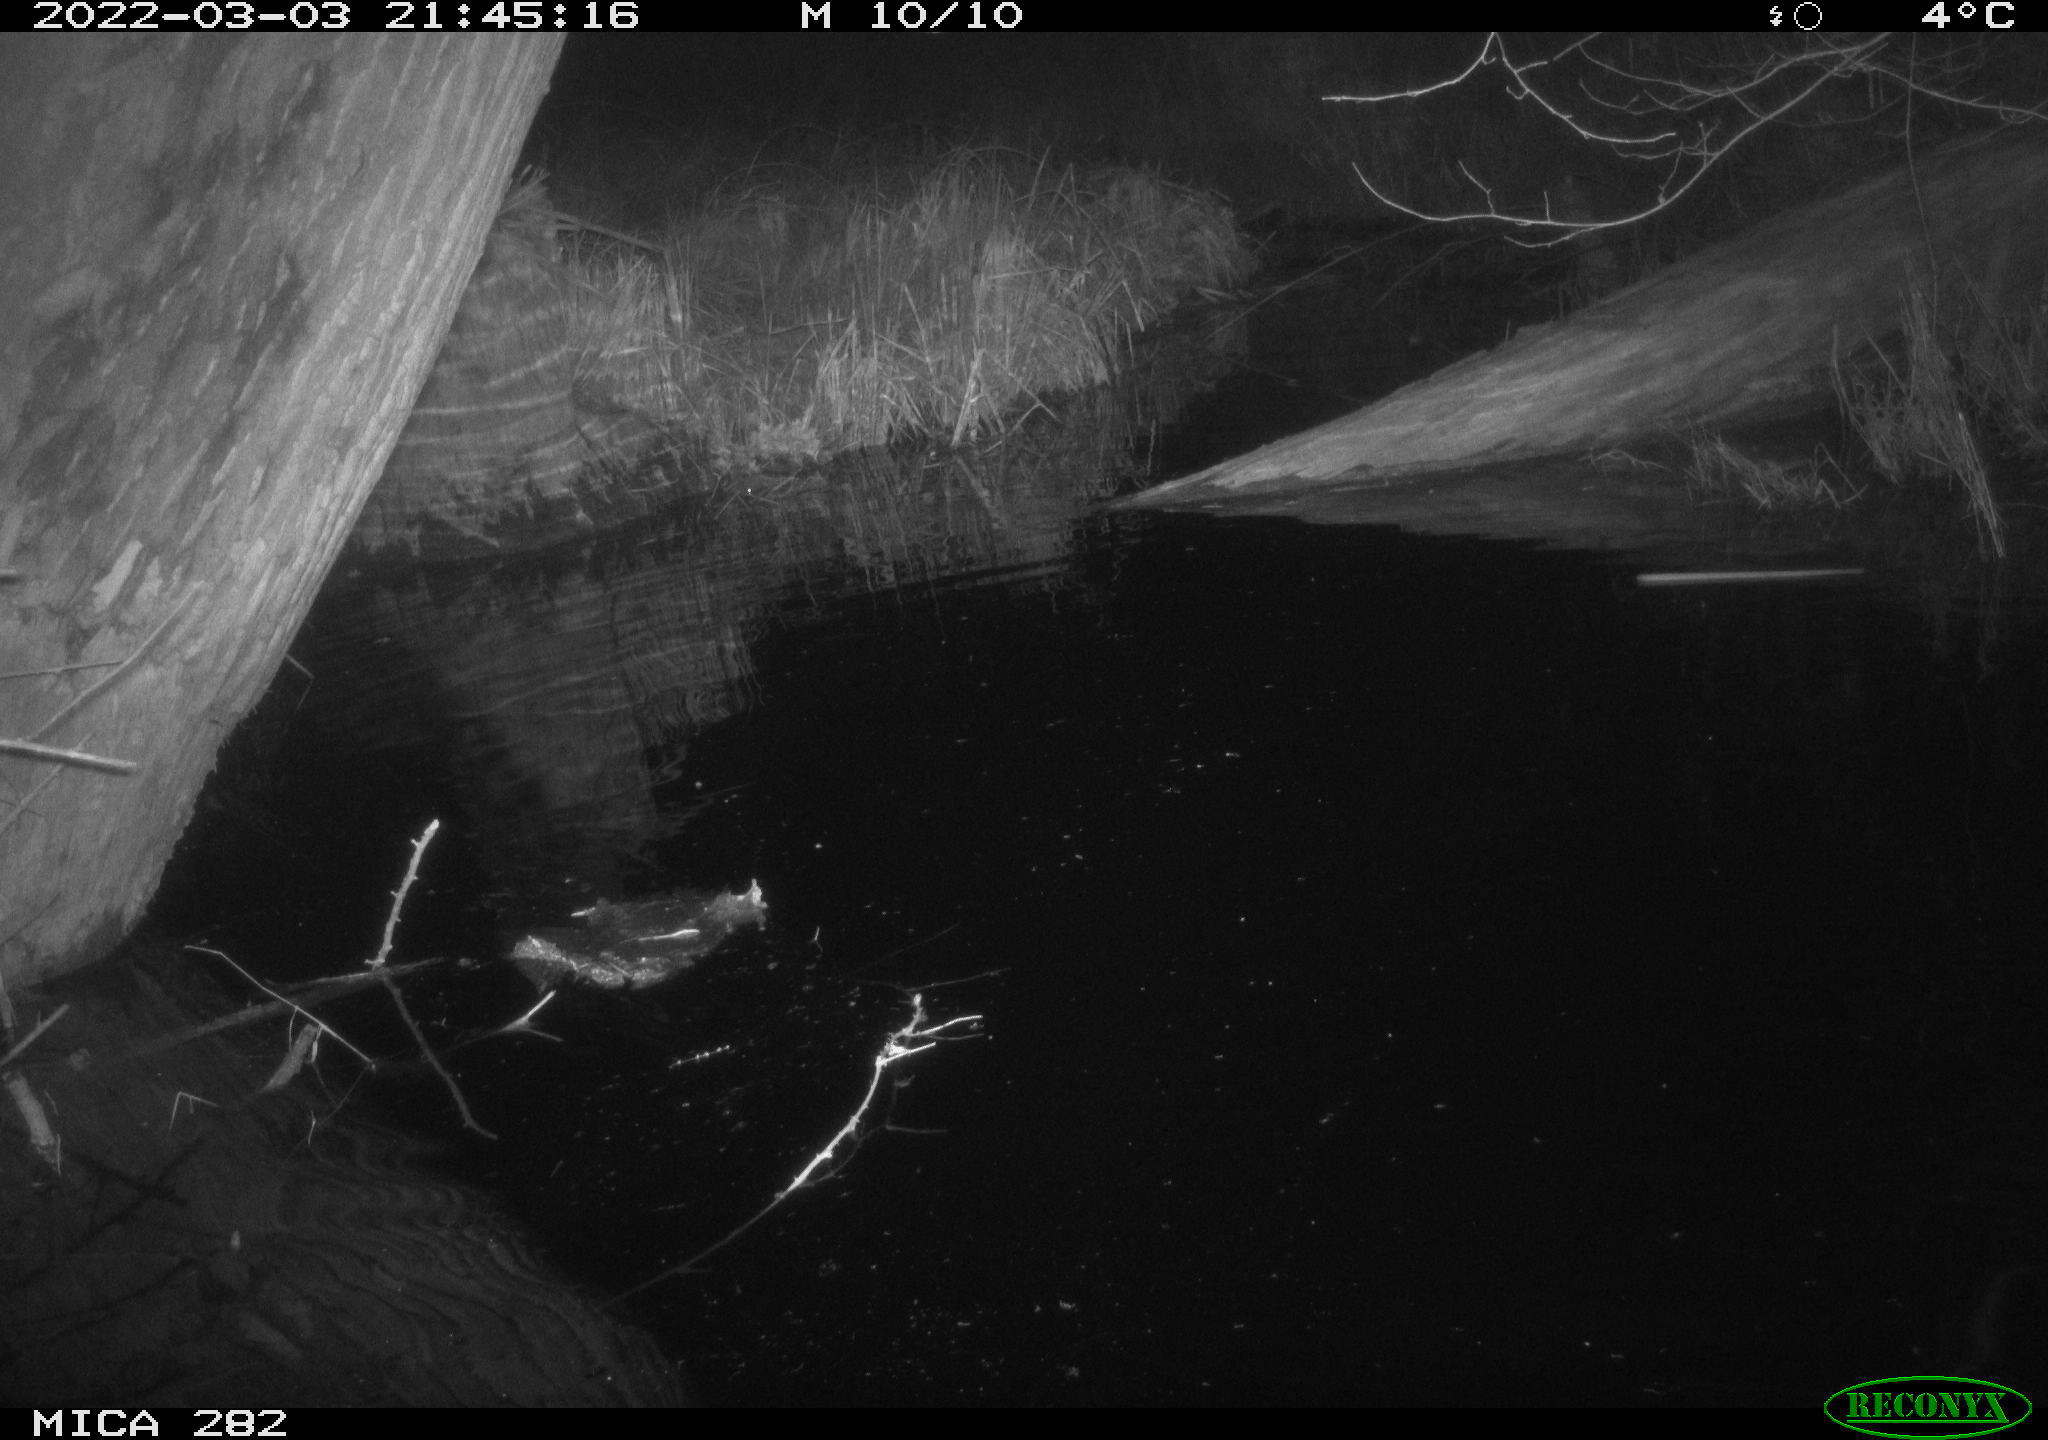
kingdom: Animalia
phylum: Chordata
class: Aves
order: Anseriformes
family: Anatidae
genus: Mareca
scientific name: Mareca strepera
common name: Gadwall
